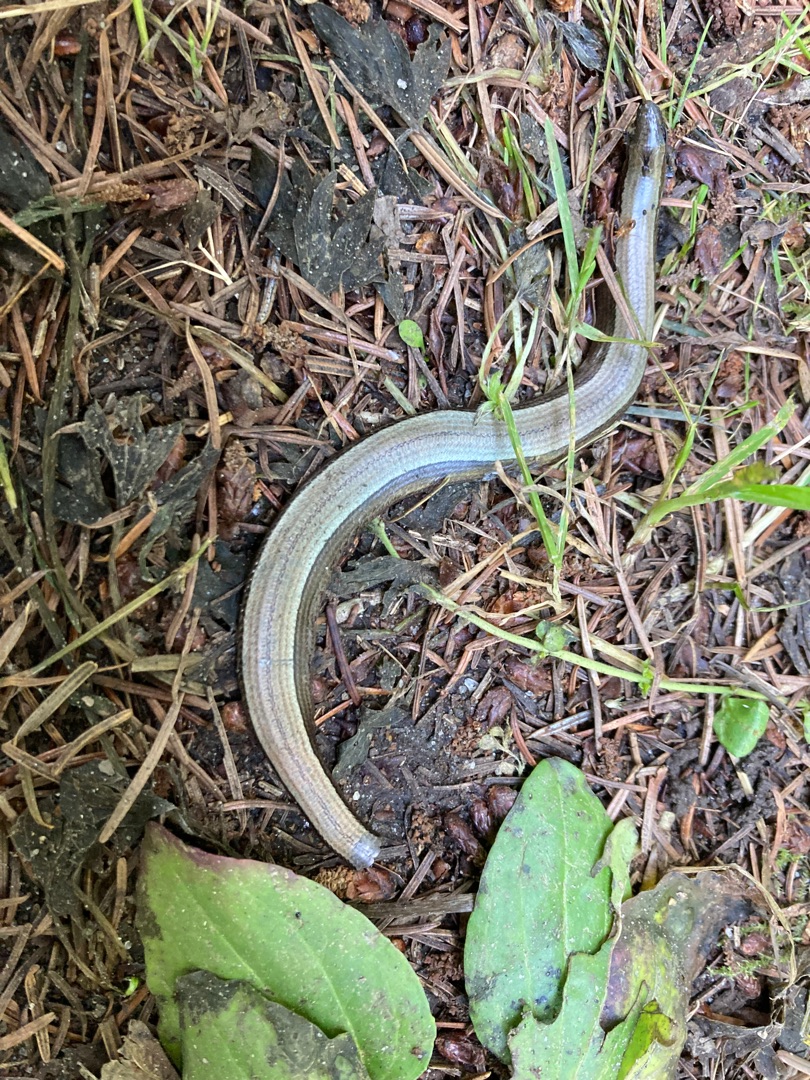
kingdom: Animalia
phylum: Chordata
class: Squamata
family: Anguidae
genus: Anguis
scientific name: Anguis fragilis
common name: Stålorm
